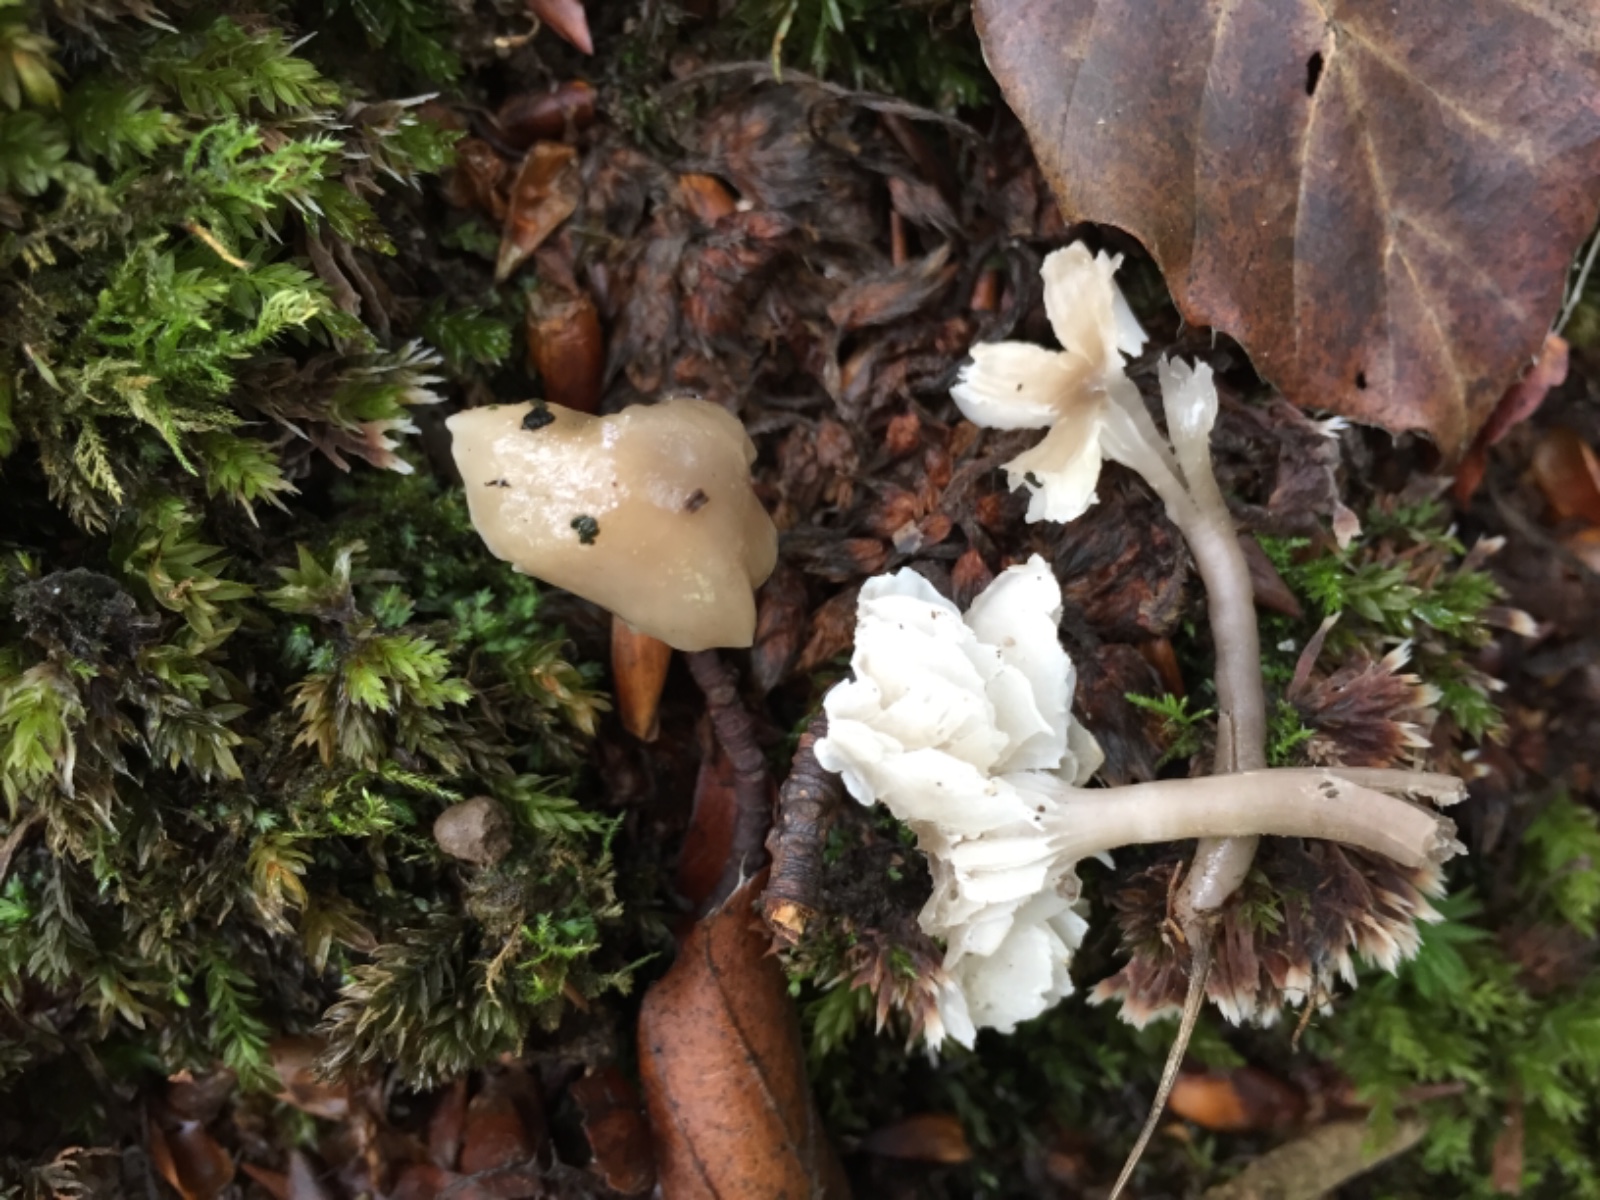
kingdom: Fungi
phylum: Basidiomycota
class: Agaricomycetes
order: Agaricales
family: Hygrophoraceae
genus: Gliophorus
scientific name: Gliophorus irrigatus
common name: slimet vokshat
